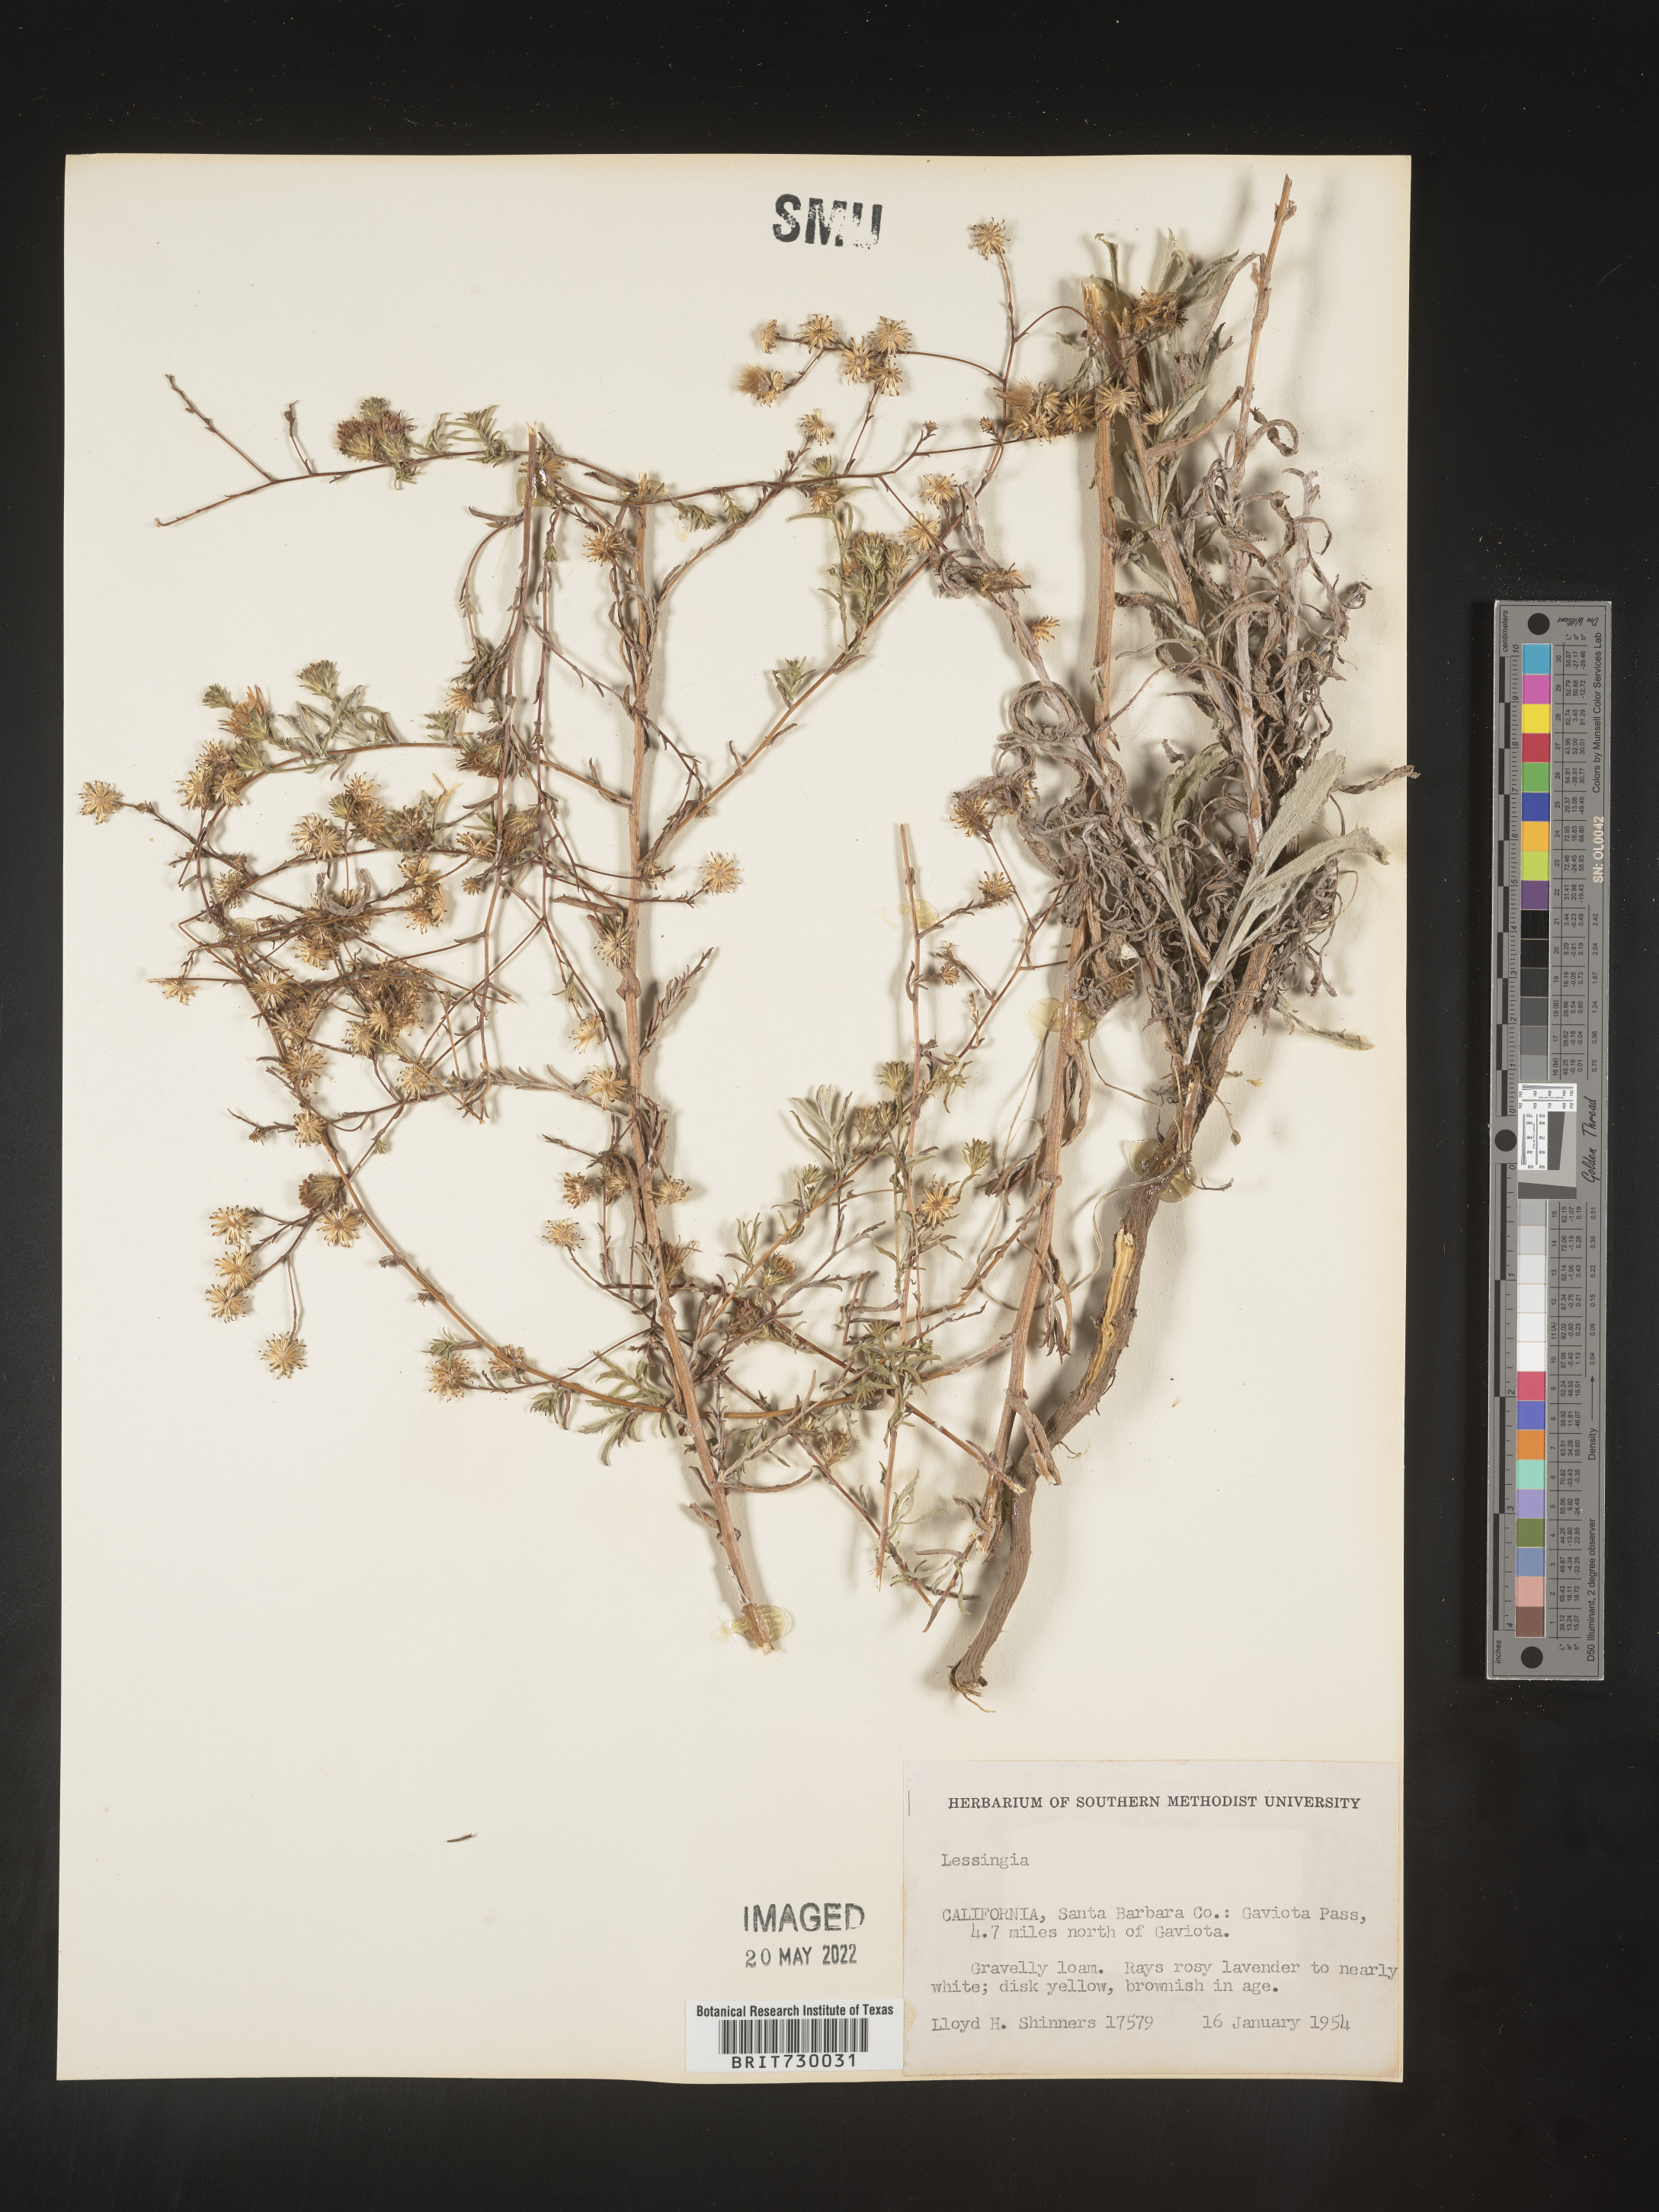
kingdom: Plantae
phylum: Tracheophyta
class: Magnoliopsida
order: Asterales
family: Asteraceae
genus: Lessingia
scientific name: Lessingia
